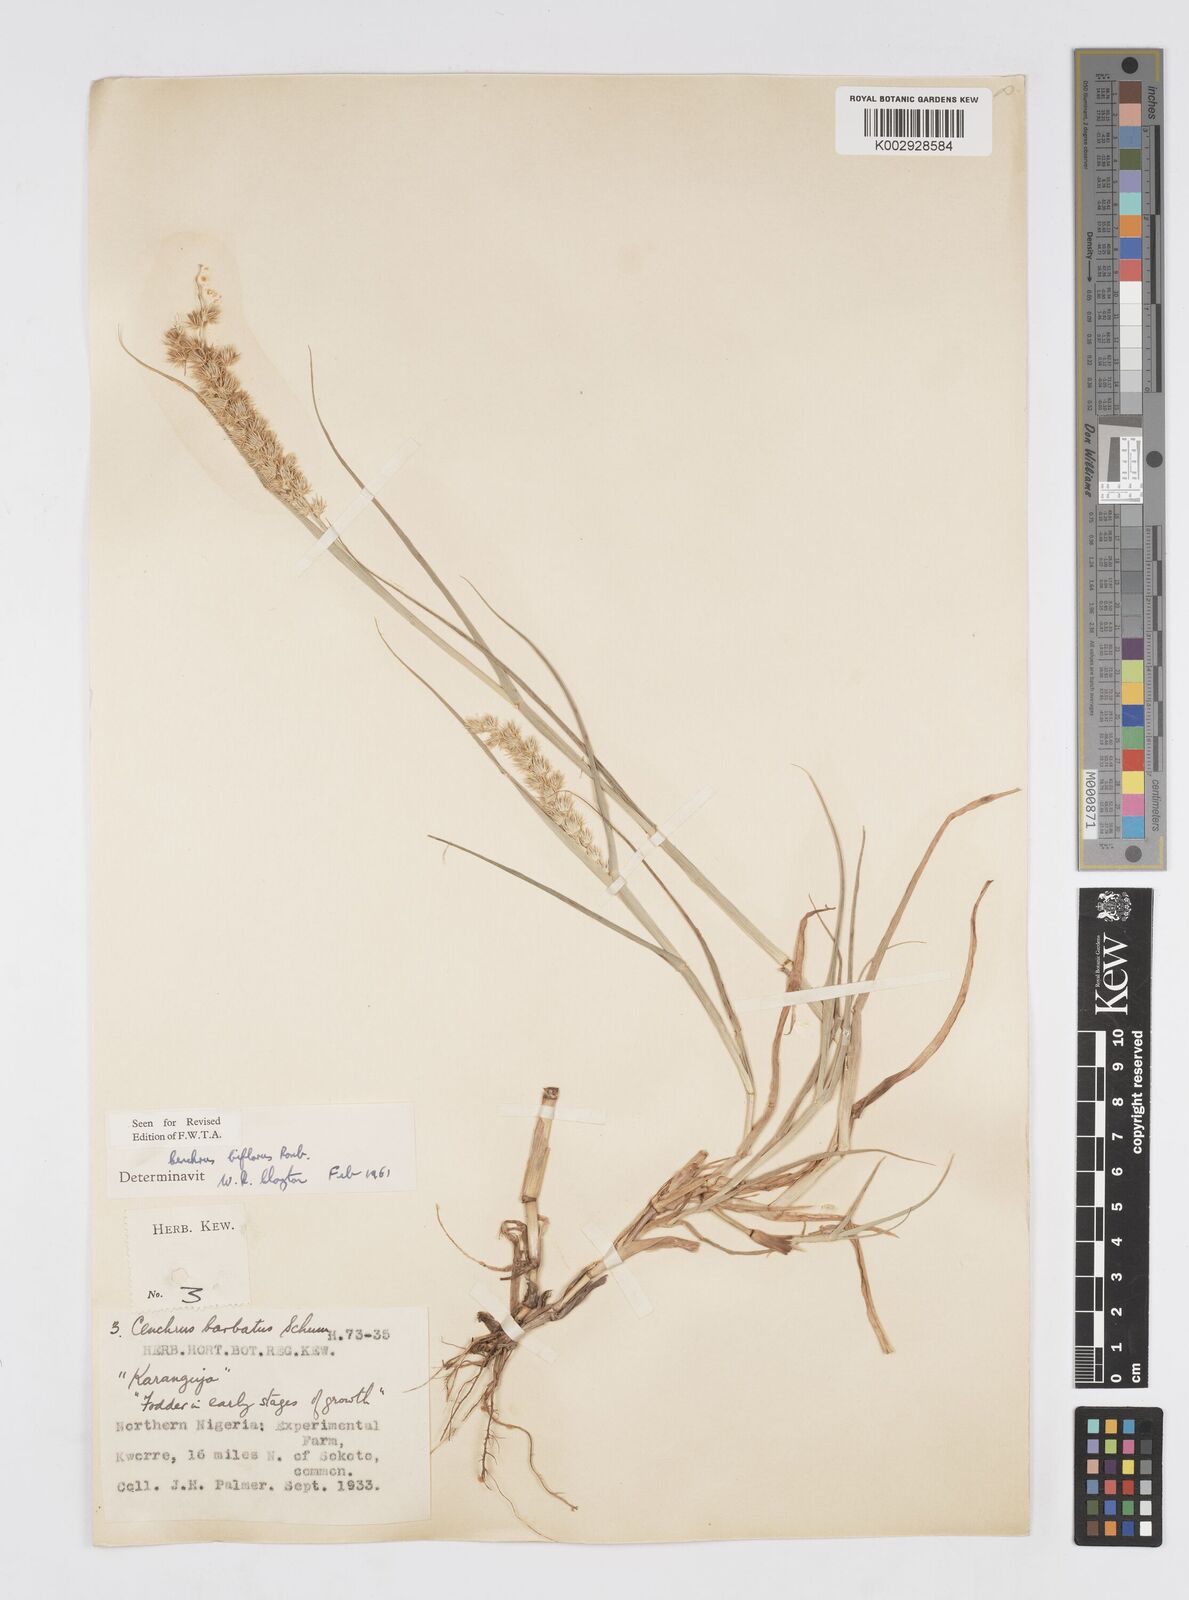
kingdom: Plantae
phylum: Tracheophyta
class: Liliopsida
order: Poales
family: Poaceae
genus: Cenchrus
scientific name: Cenchrus biflorus
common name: Indian sandbur
